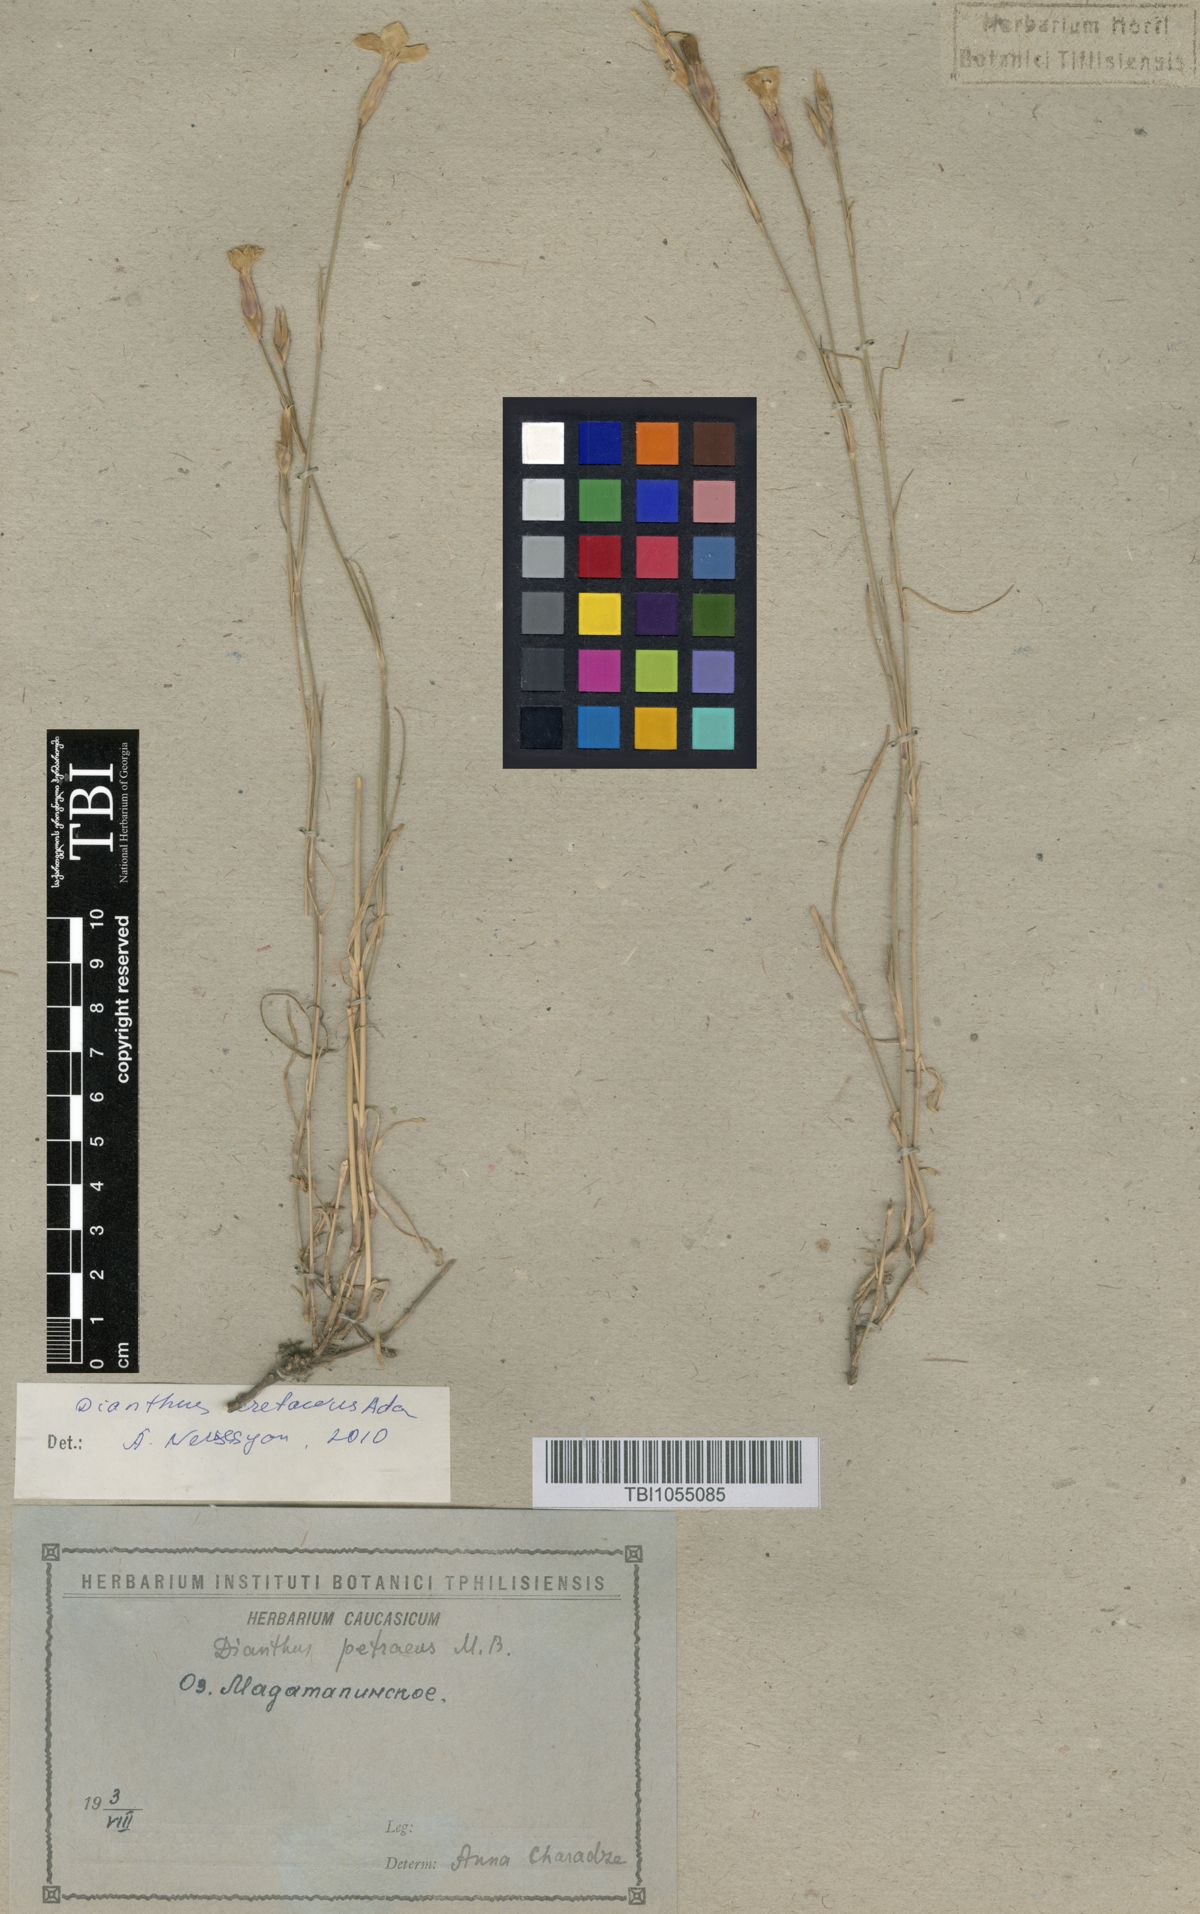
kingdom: Plantae
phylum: Tracheophyta
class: Magnoliopsida
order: Caryophyllales
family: Caryophyllaceae
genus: Dianthus
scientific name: Dianthus cretaceus
